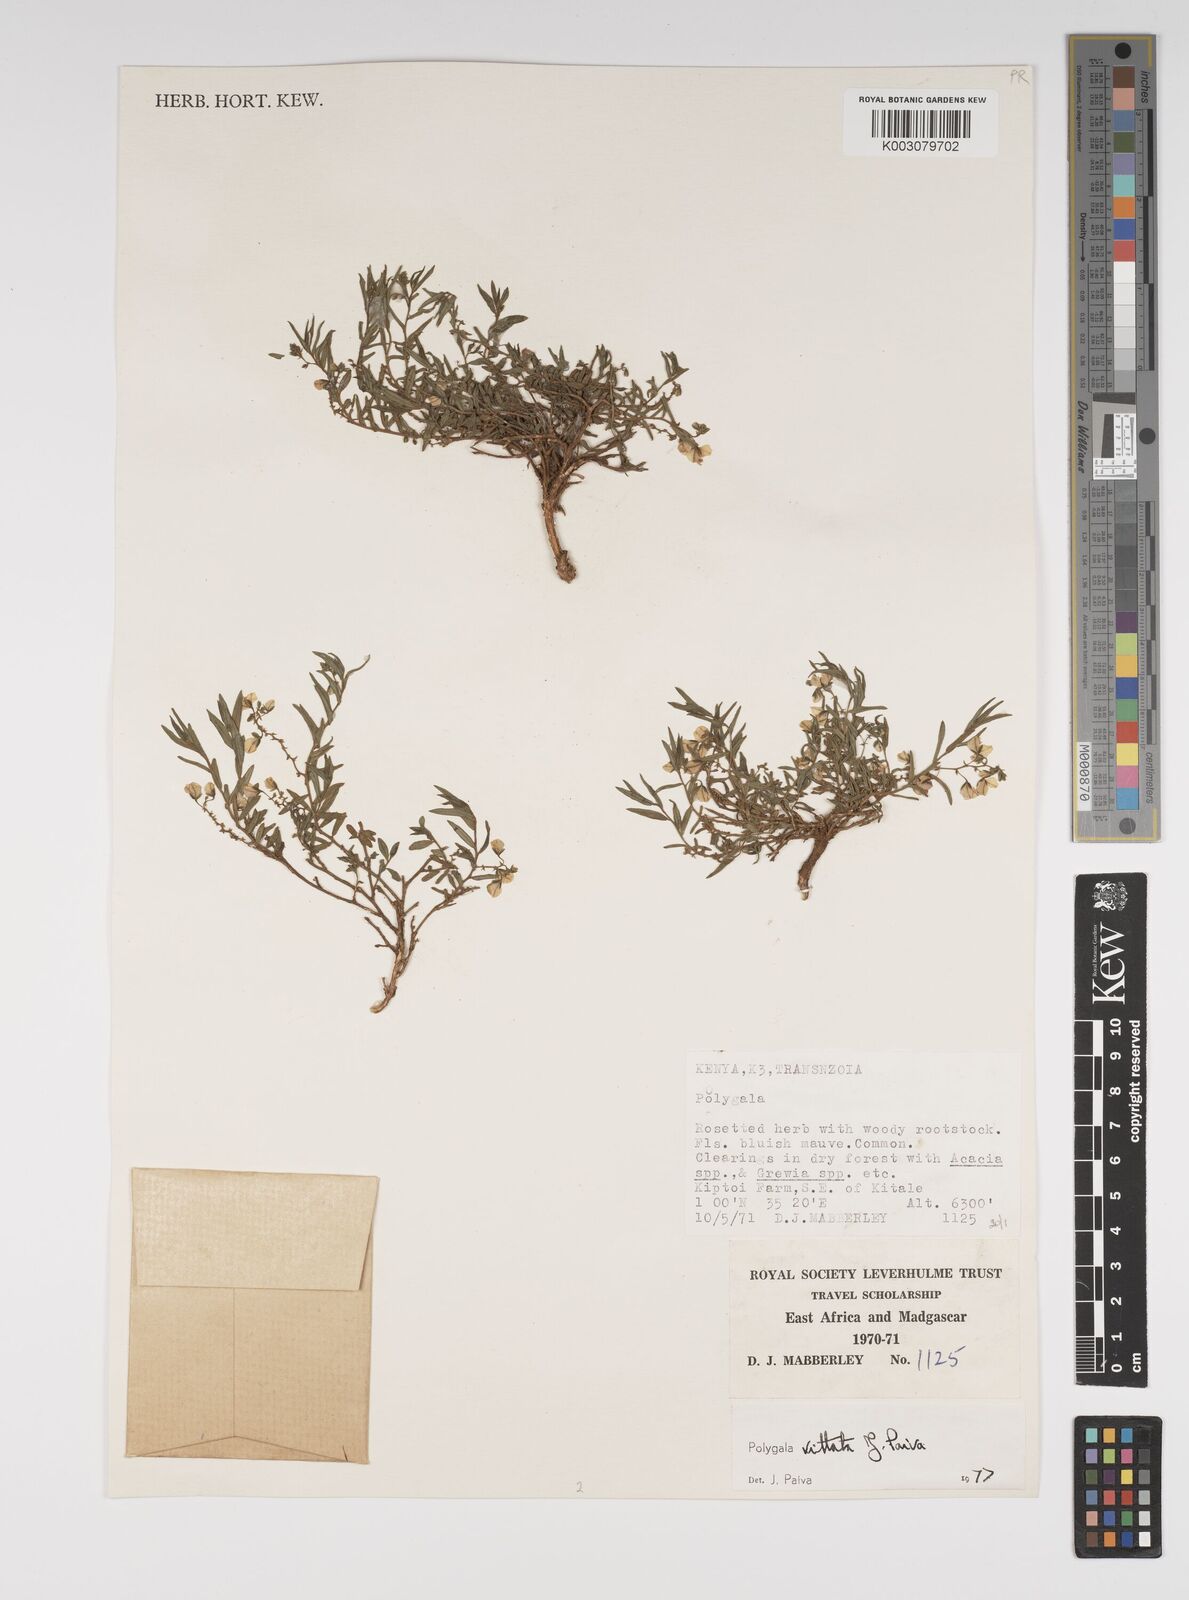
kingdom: Plantae
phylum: Tracheophyta
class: Magnoliopsida
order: Fabales
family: Polygalaceae
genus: Polygala
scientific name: Polygala vittata
